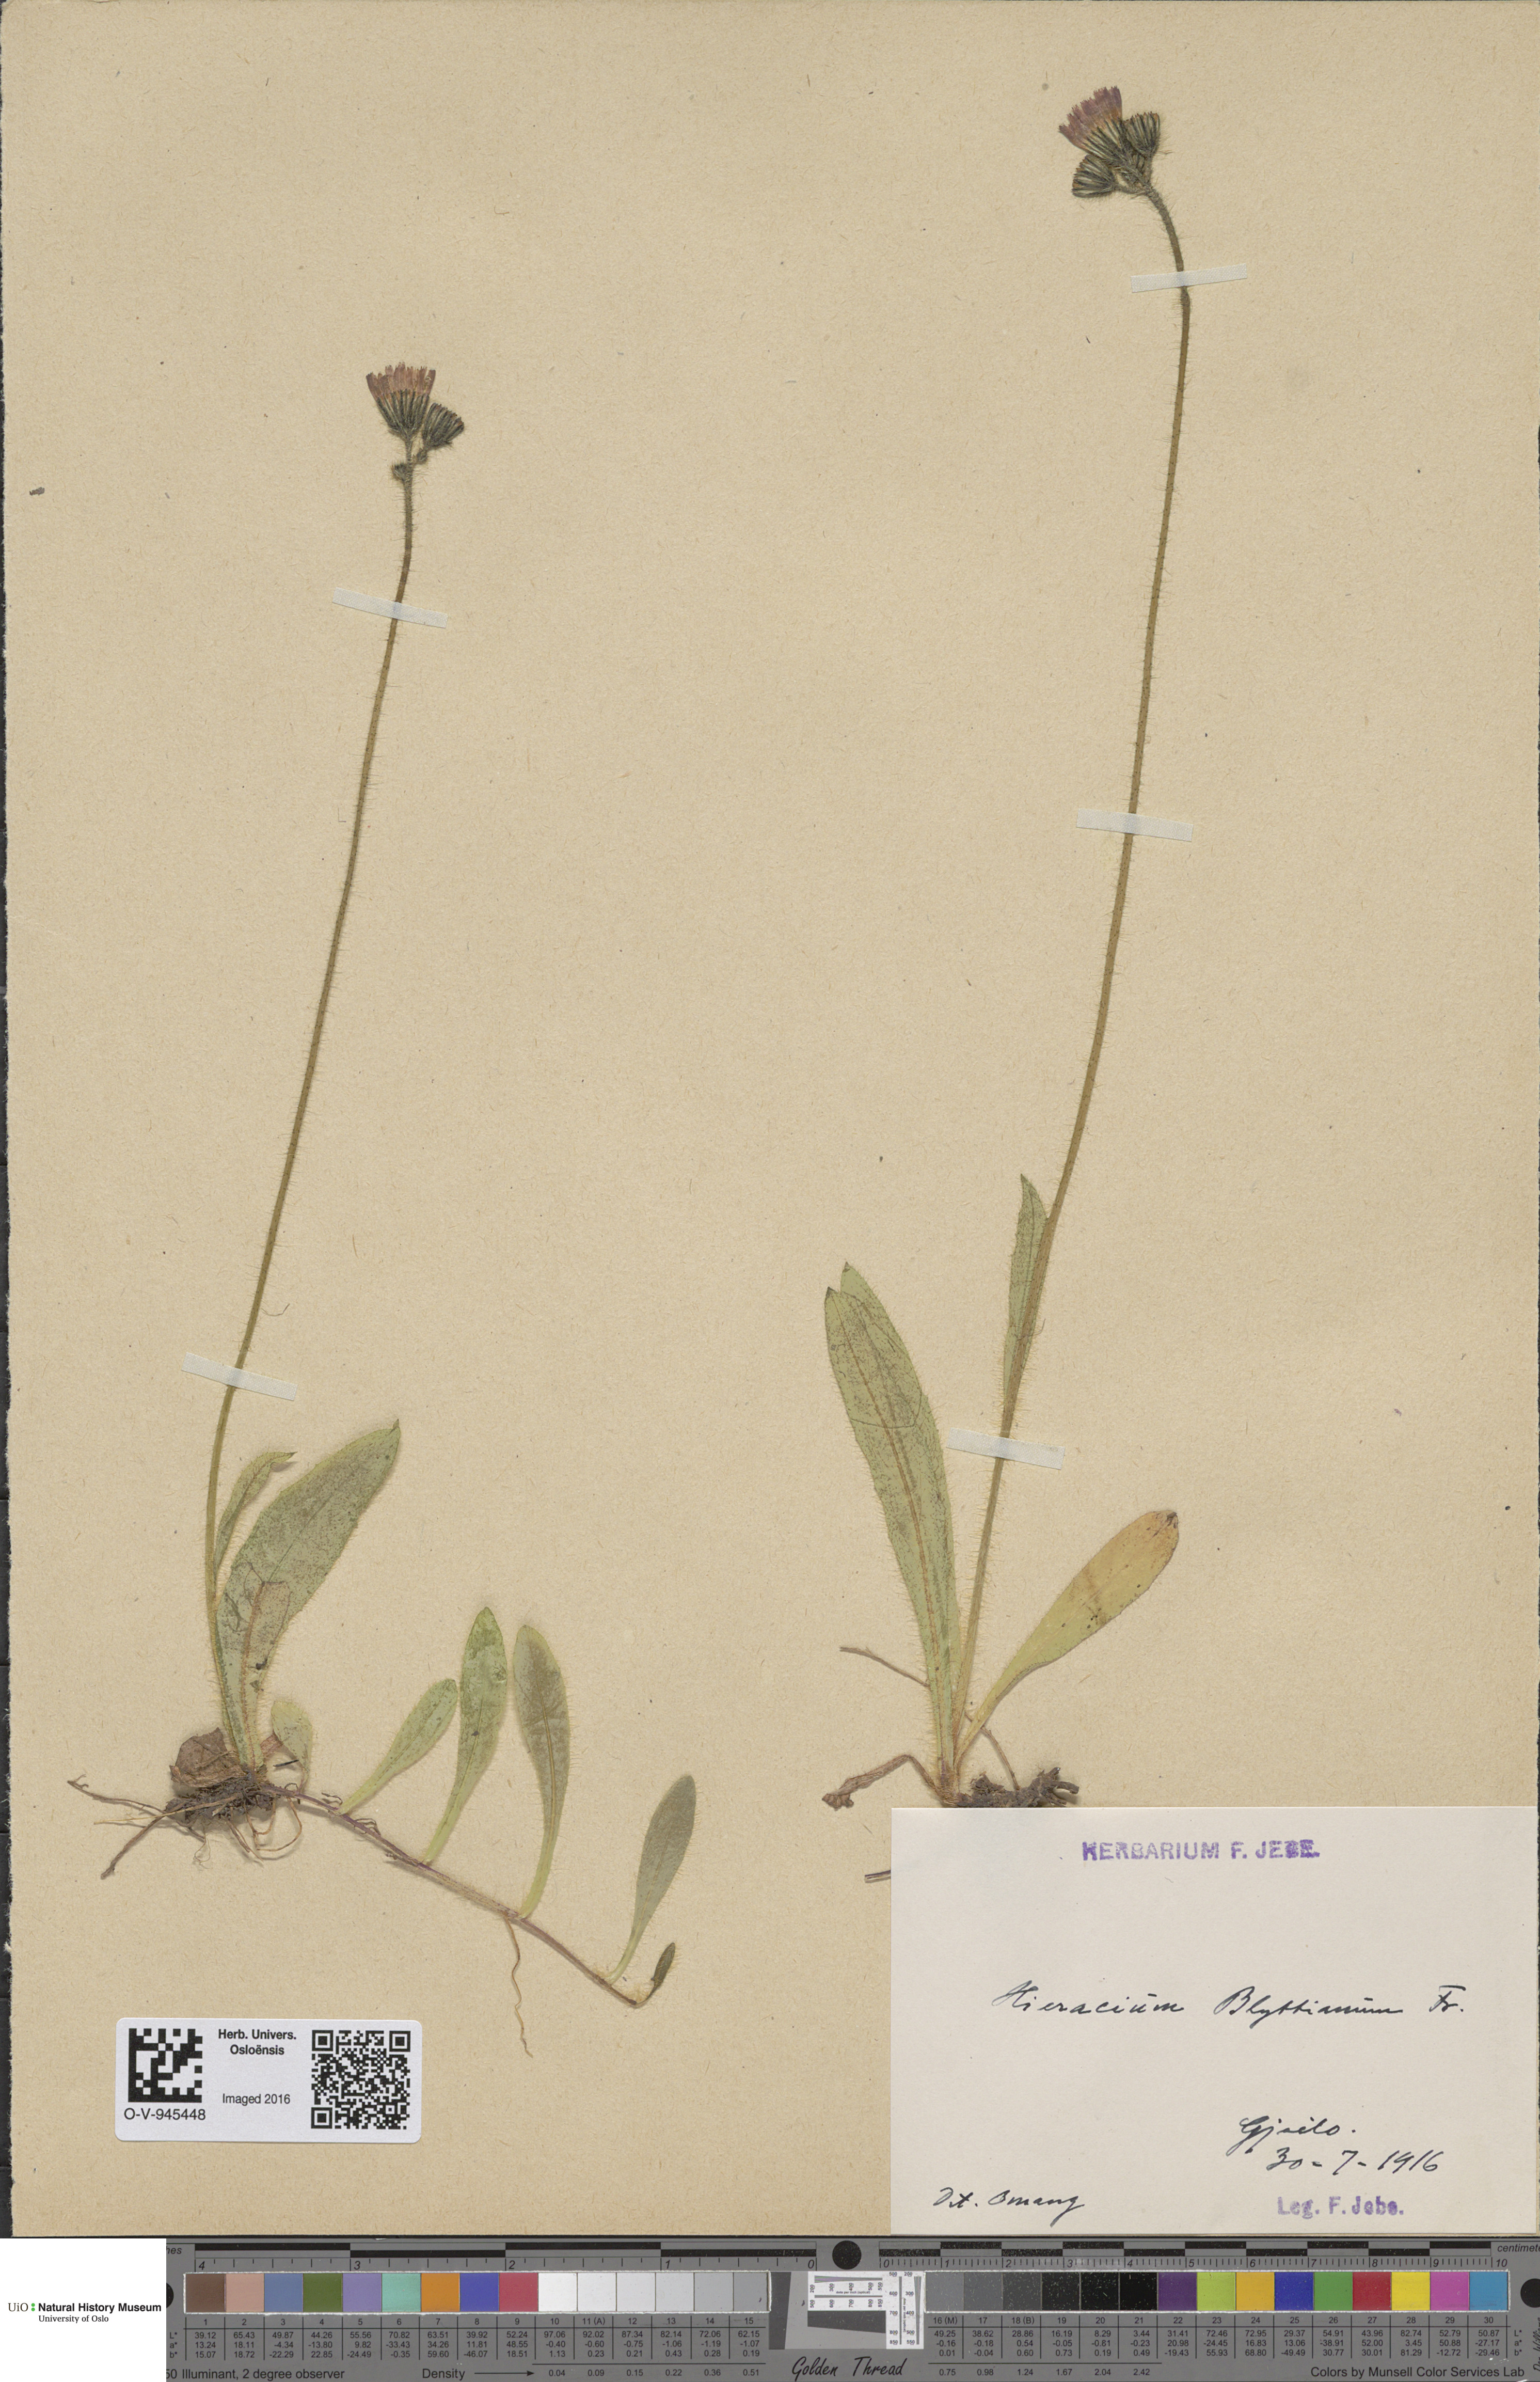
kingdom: Plantae
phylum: Tracheophyta
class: Magnoliopsida
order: Asterales
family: Asteraceae
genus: Pilosella
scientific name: Pilosella blyttiana
